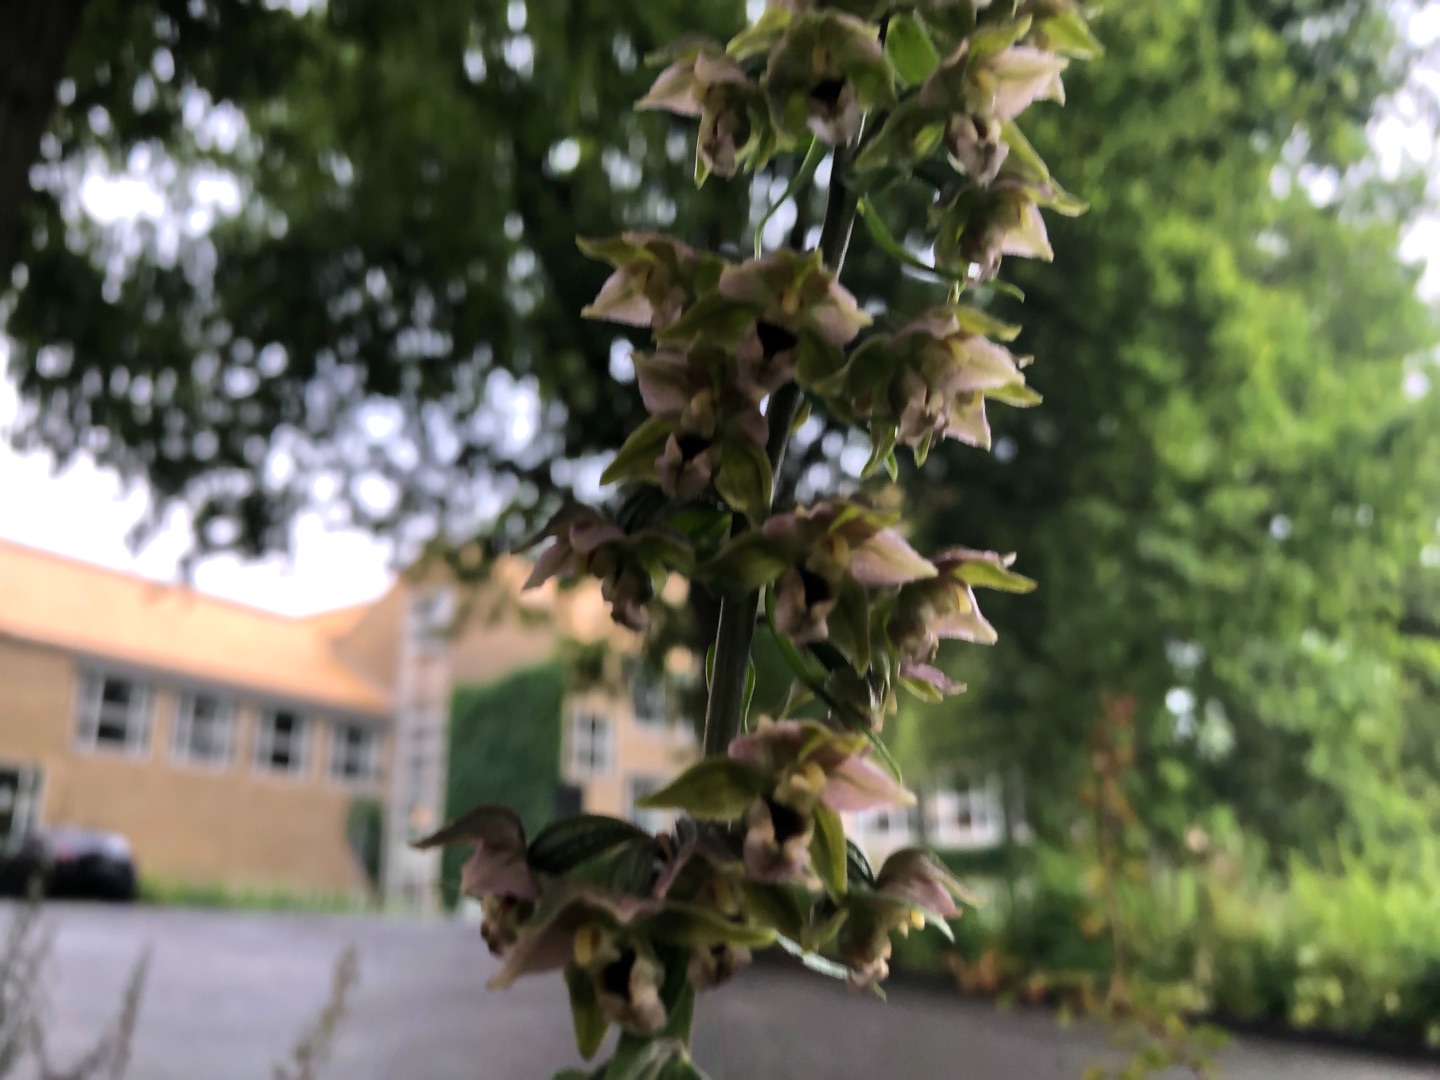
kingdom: Plantae
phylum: Tracheophyta
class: Liliopsida
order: Asparagales
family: Orchidaceae
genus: Epipactis
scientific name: Epipactis helleborine
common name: Skov-hullæbe
